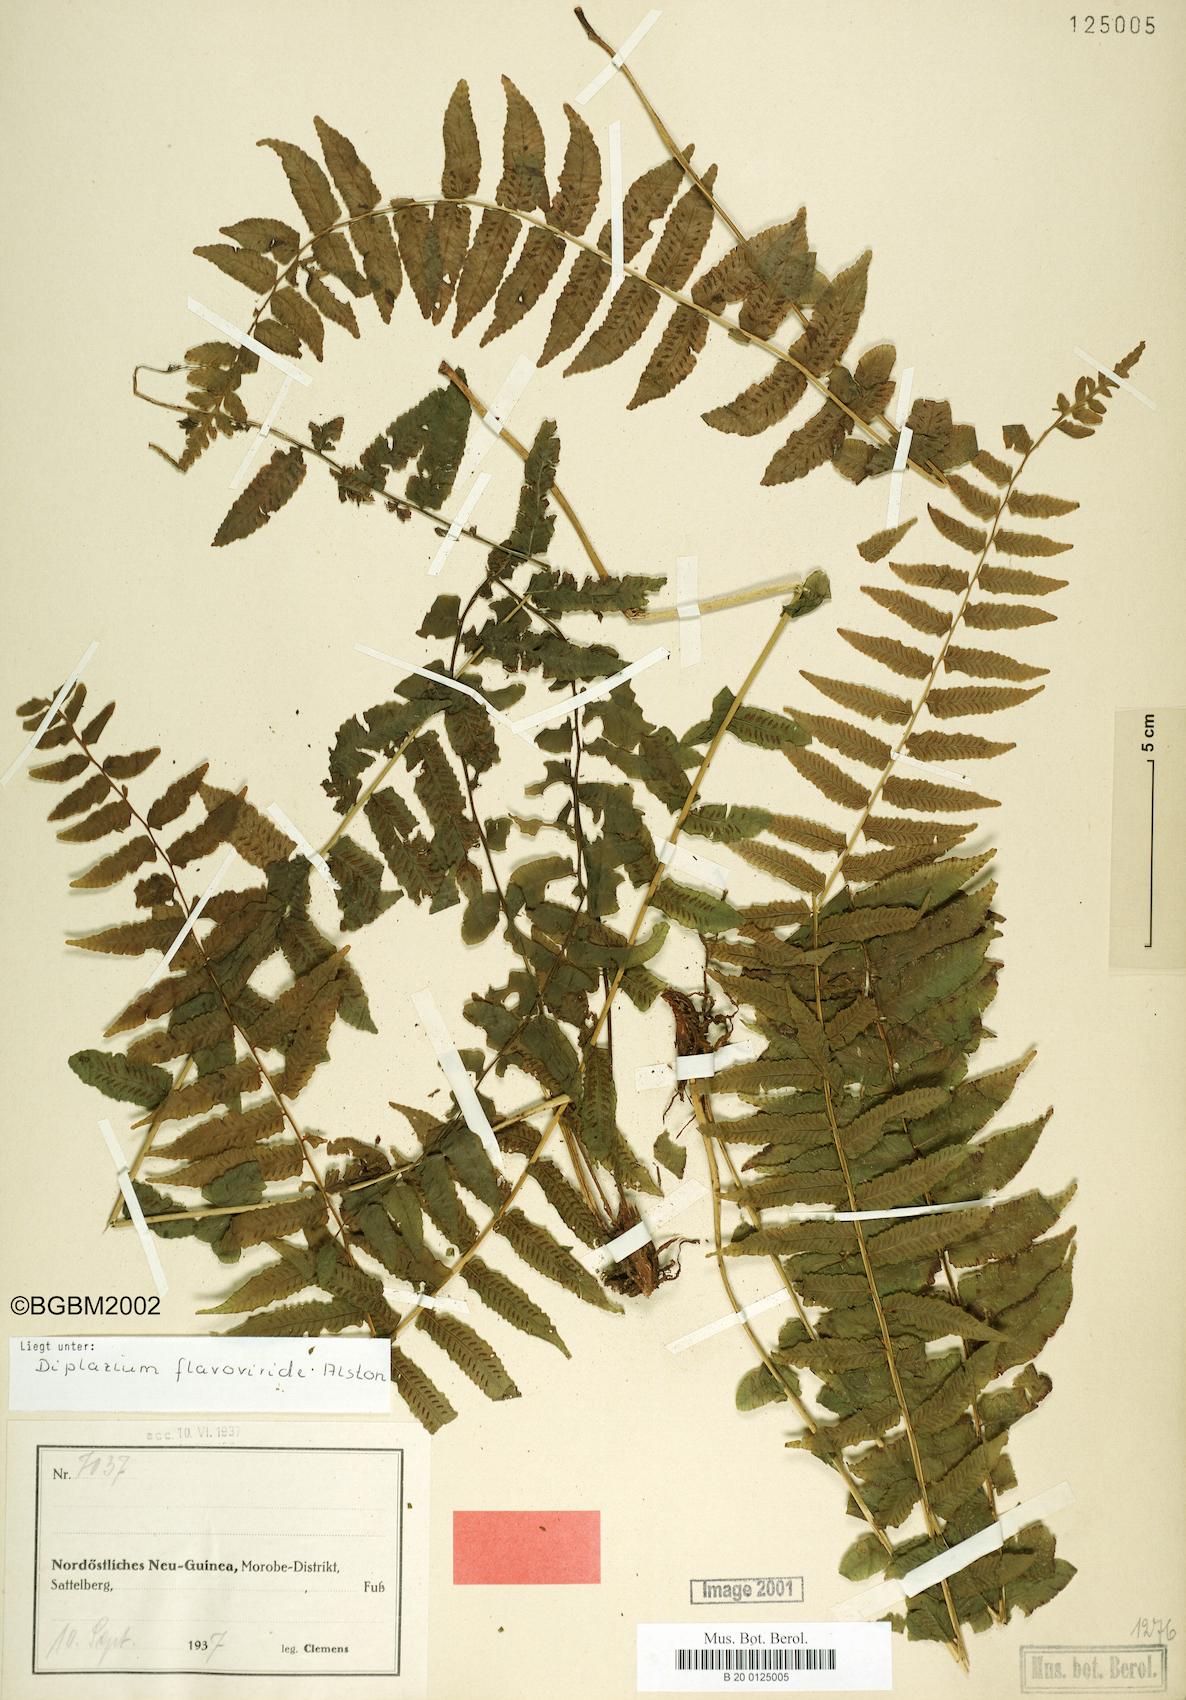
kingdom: Plantae
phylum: Tracheophyta
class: Polypodiopsida
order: Polypodiales
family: Diplaziopsidaceae
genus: Diplaziopsis
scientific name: Diplaziopsis flavoviridis
